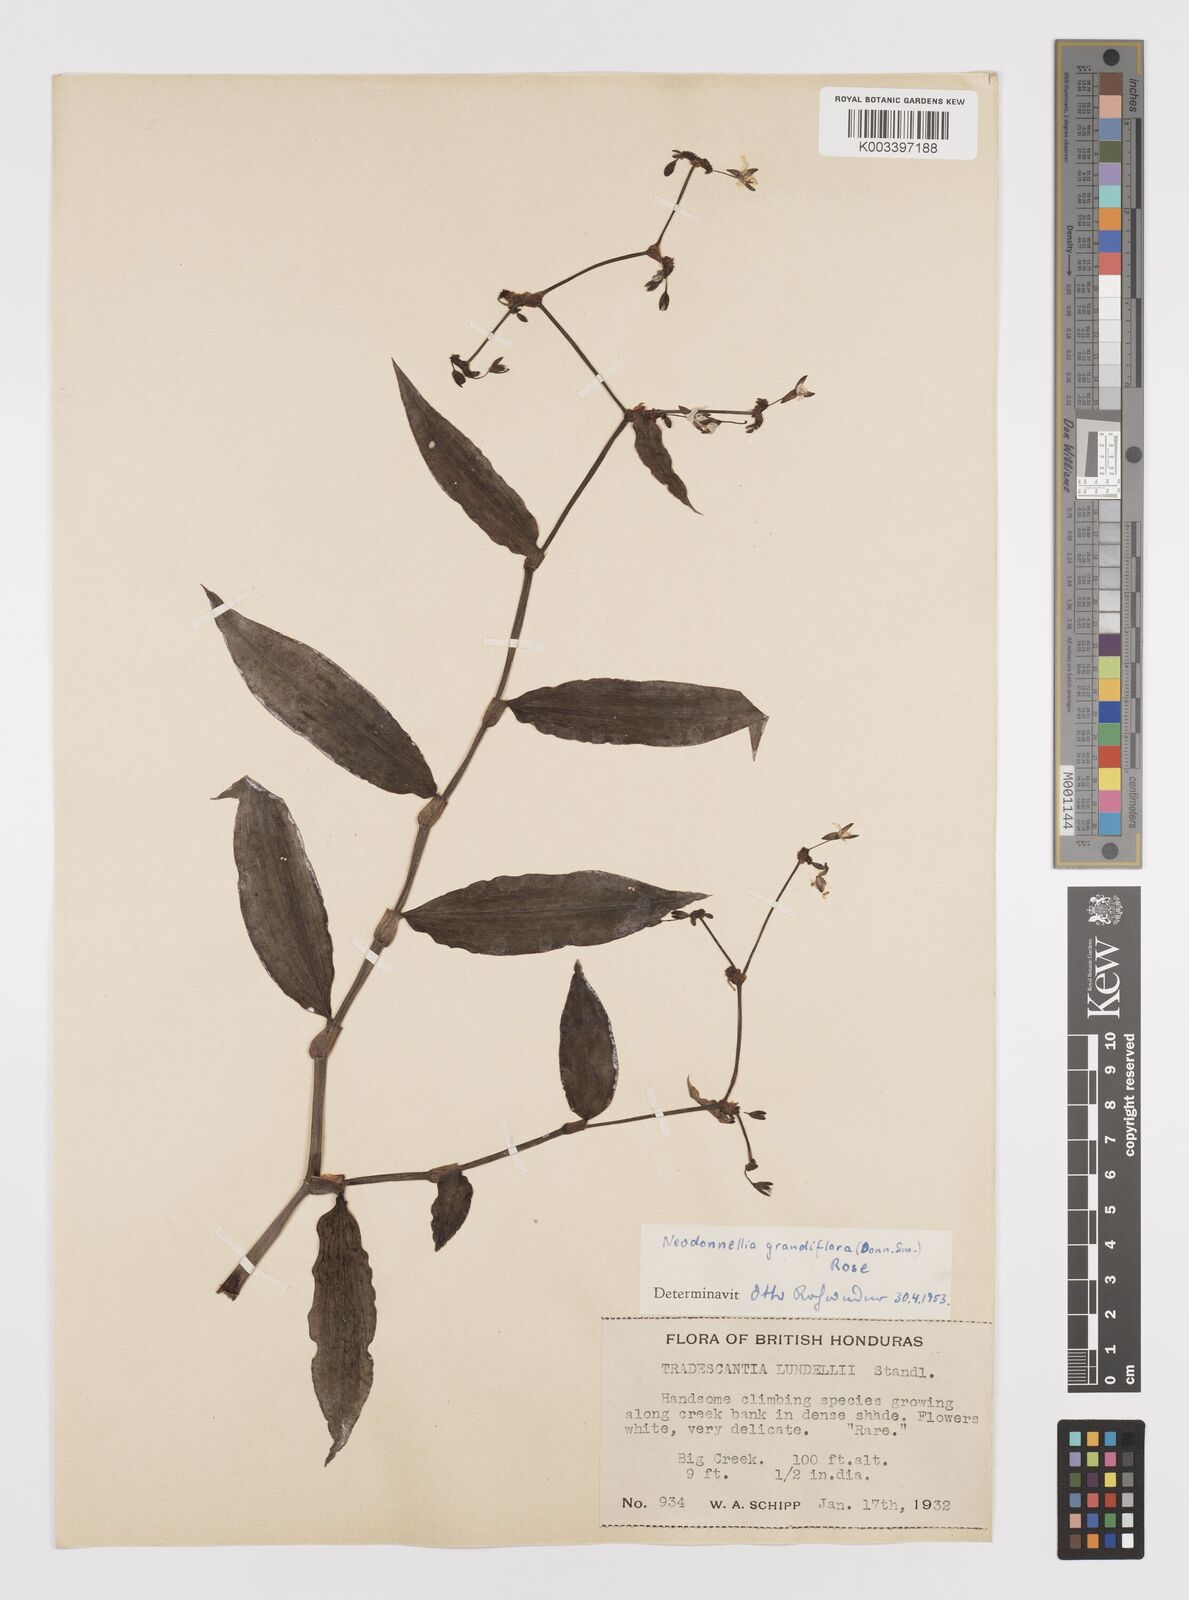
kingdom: Plantae
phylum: Tracheophyta
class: Liliopsida
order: Commelinales
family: Commelinaceae
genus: Callisia
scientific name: Callisia grandiflora
